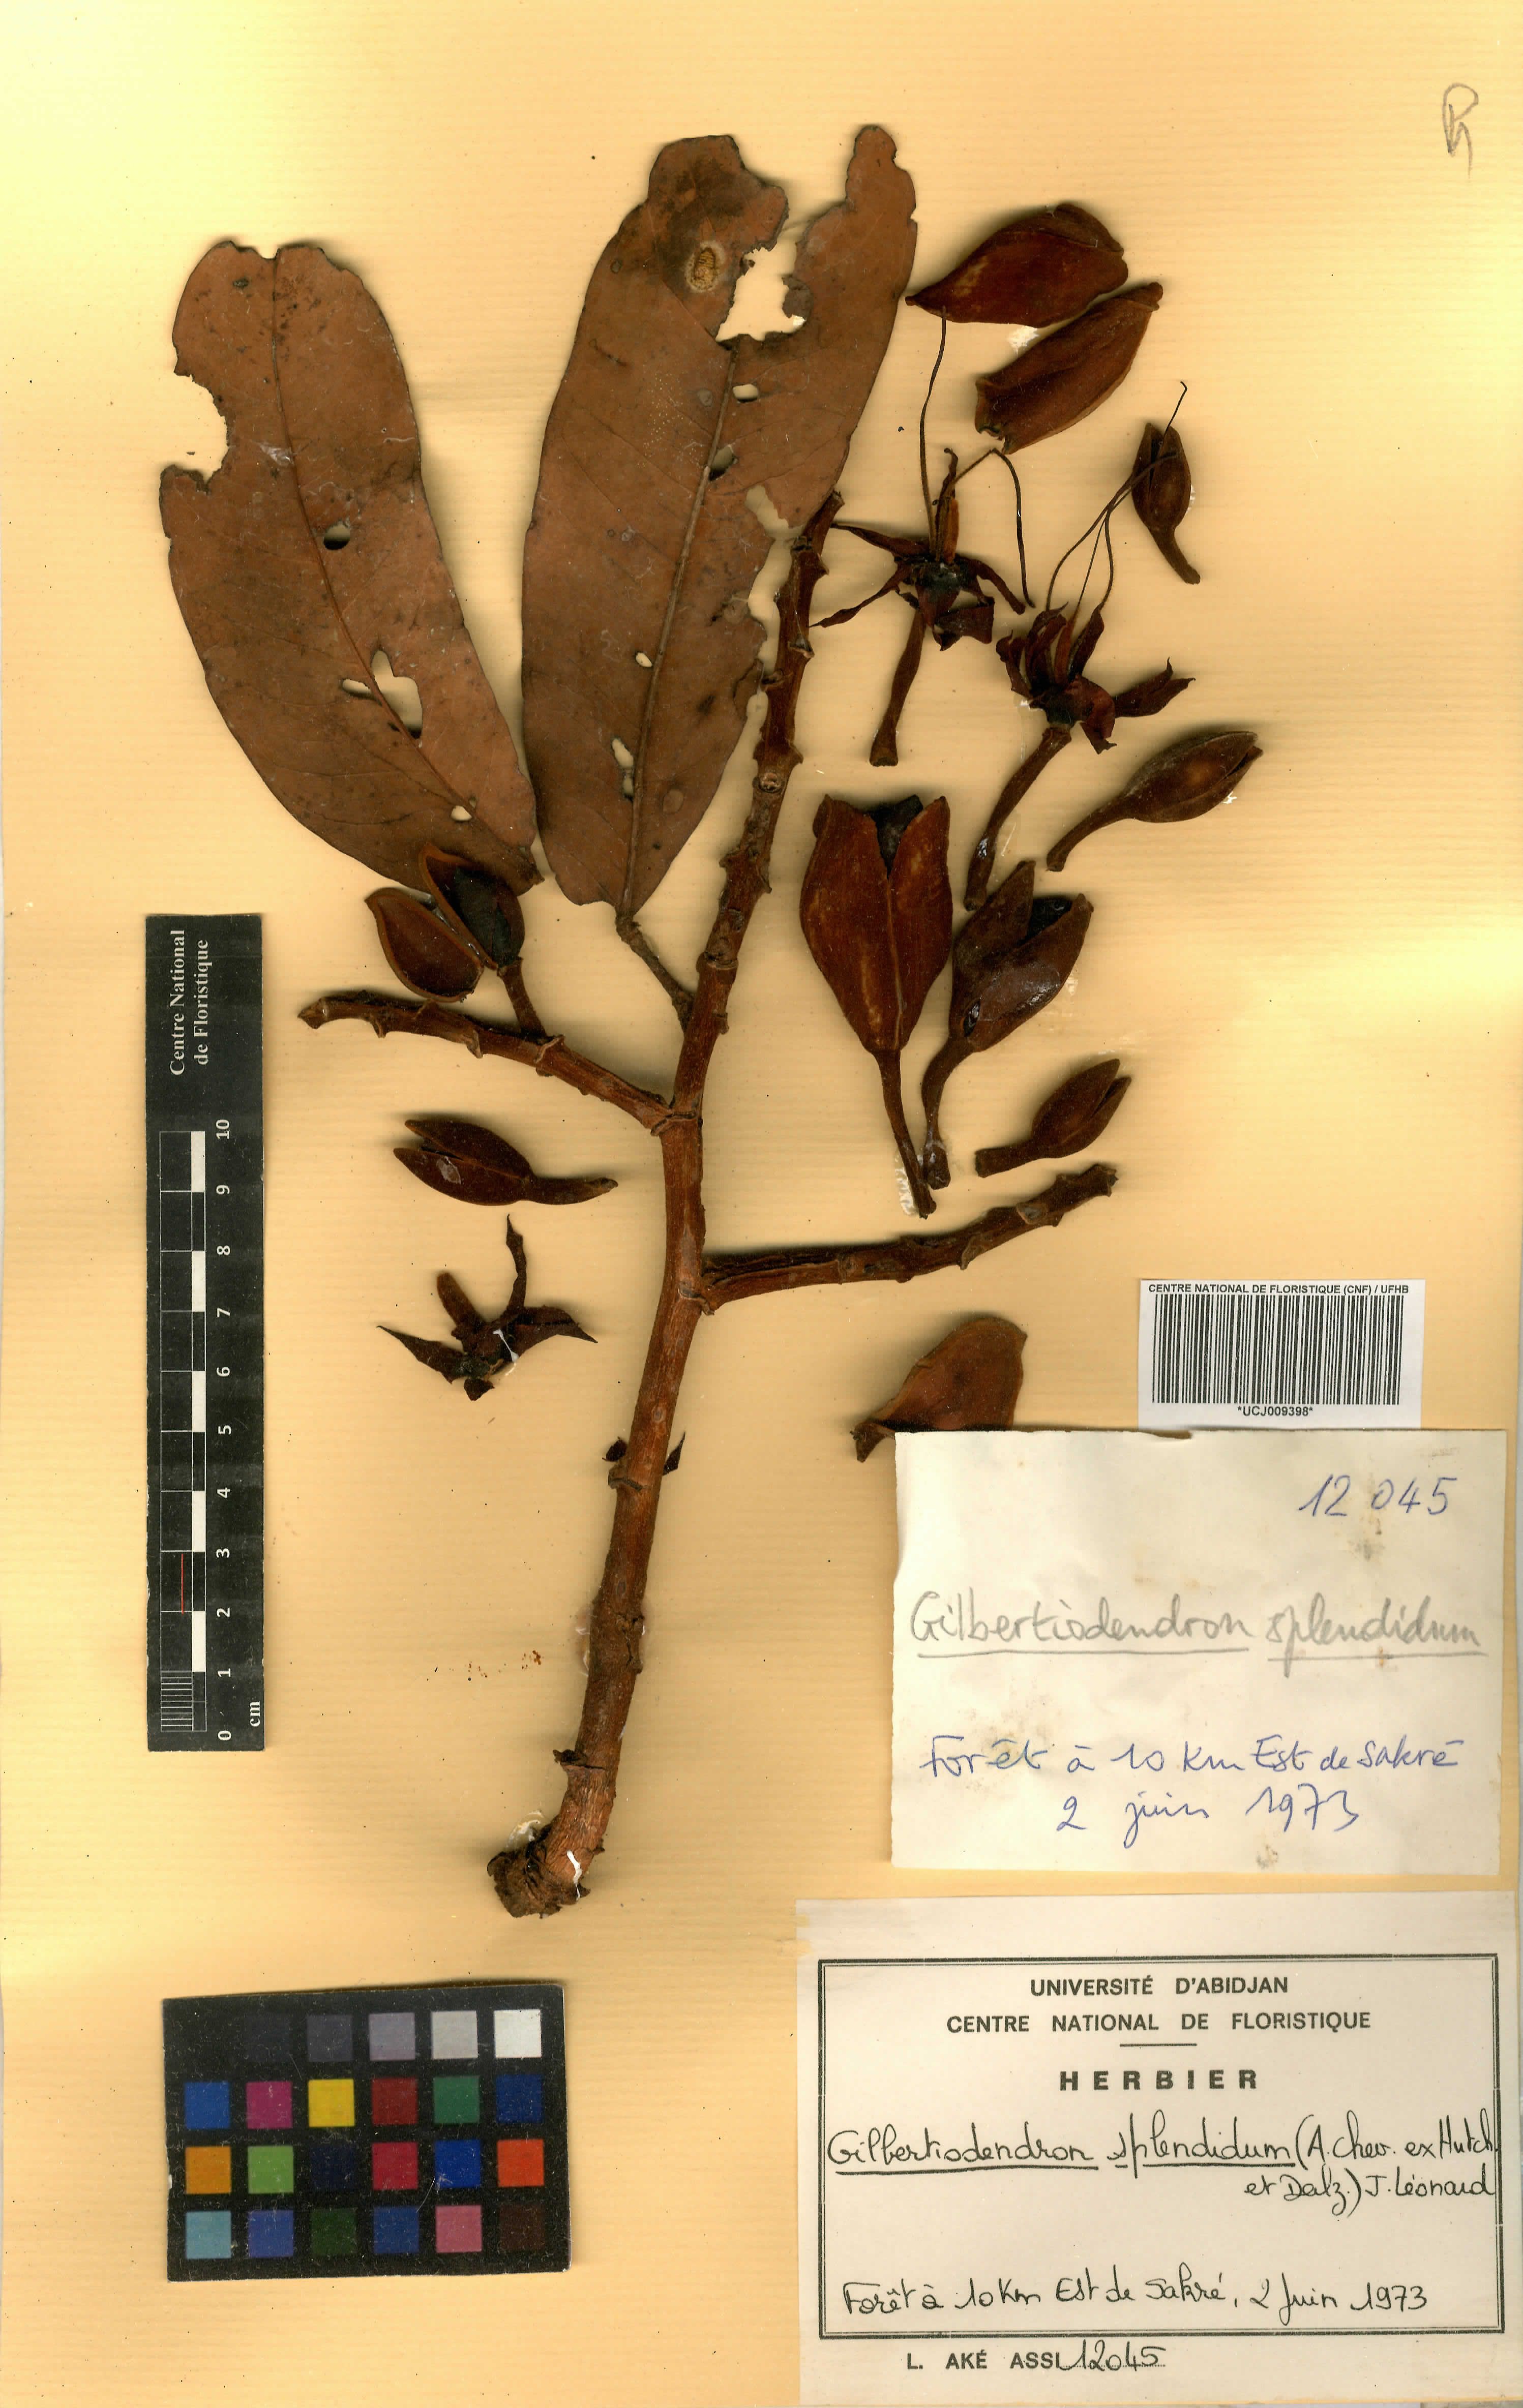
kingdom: Plantae
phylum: Tracheophyta
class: Magnoliopsida
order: Fabales
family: Fabaceae
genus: Gilbertiodendron
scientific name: Gilbertiodendron splendidum
